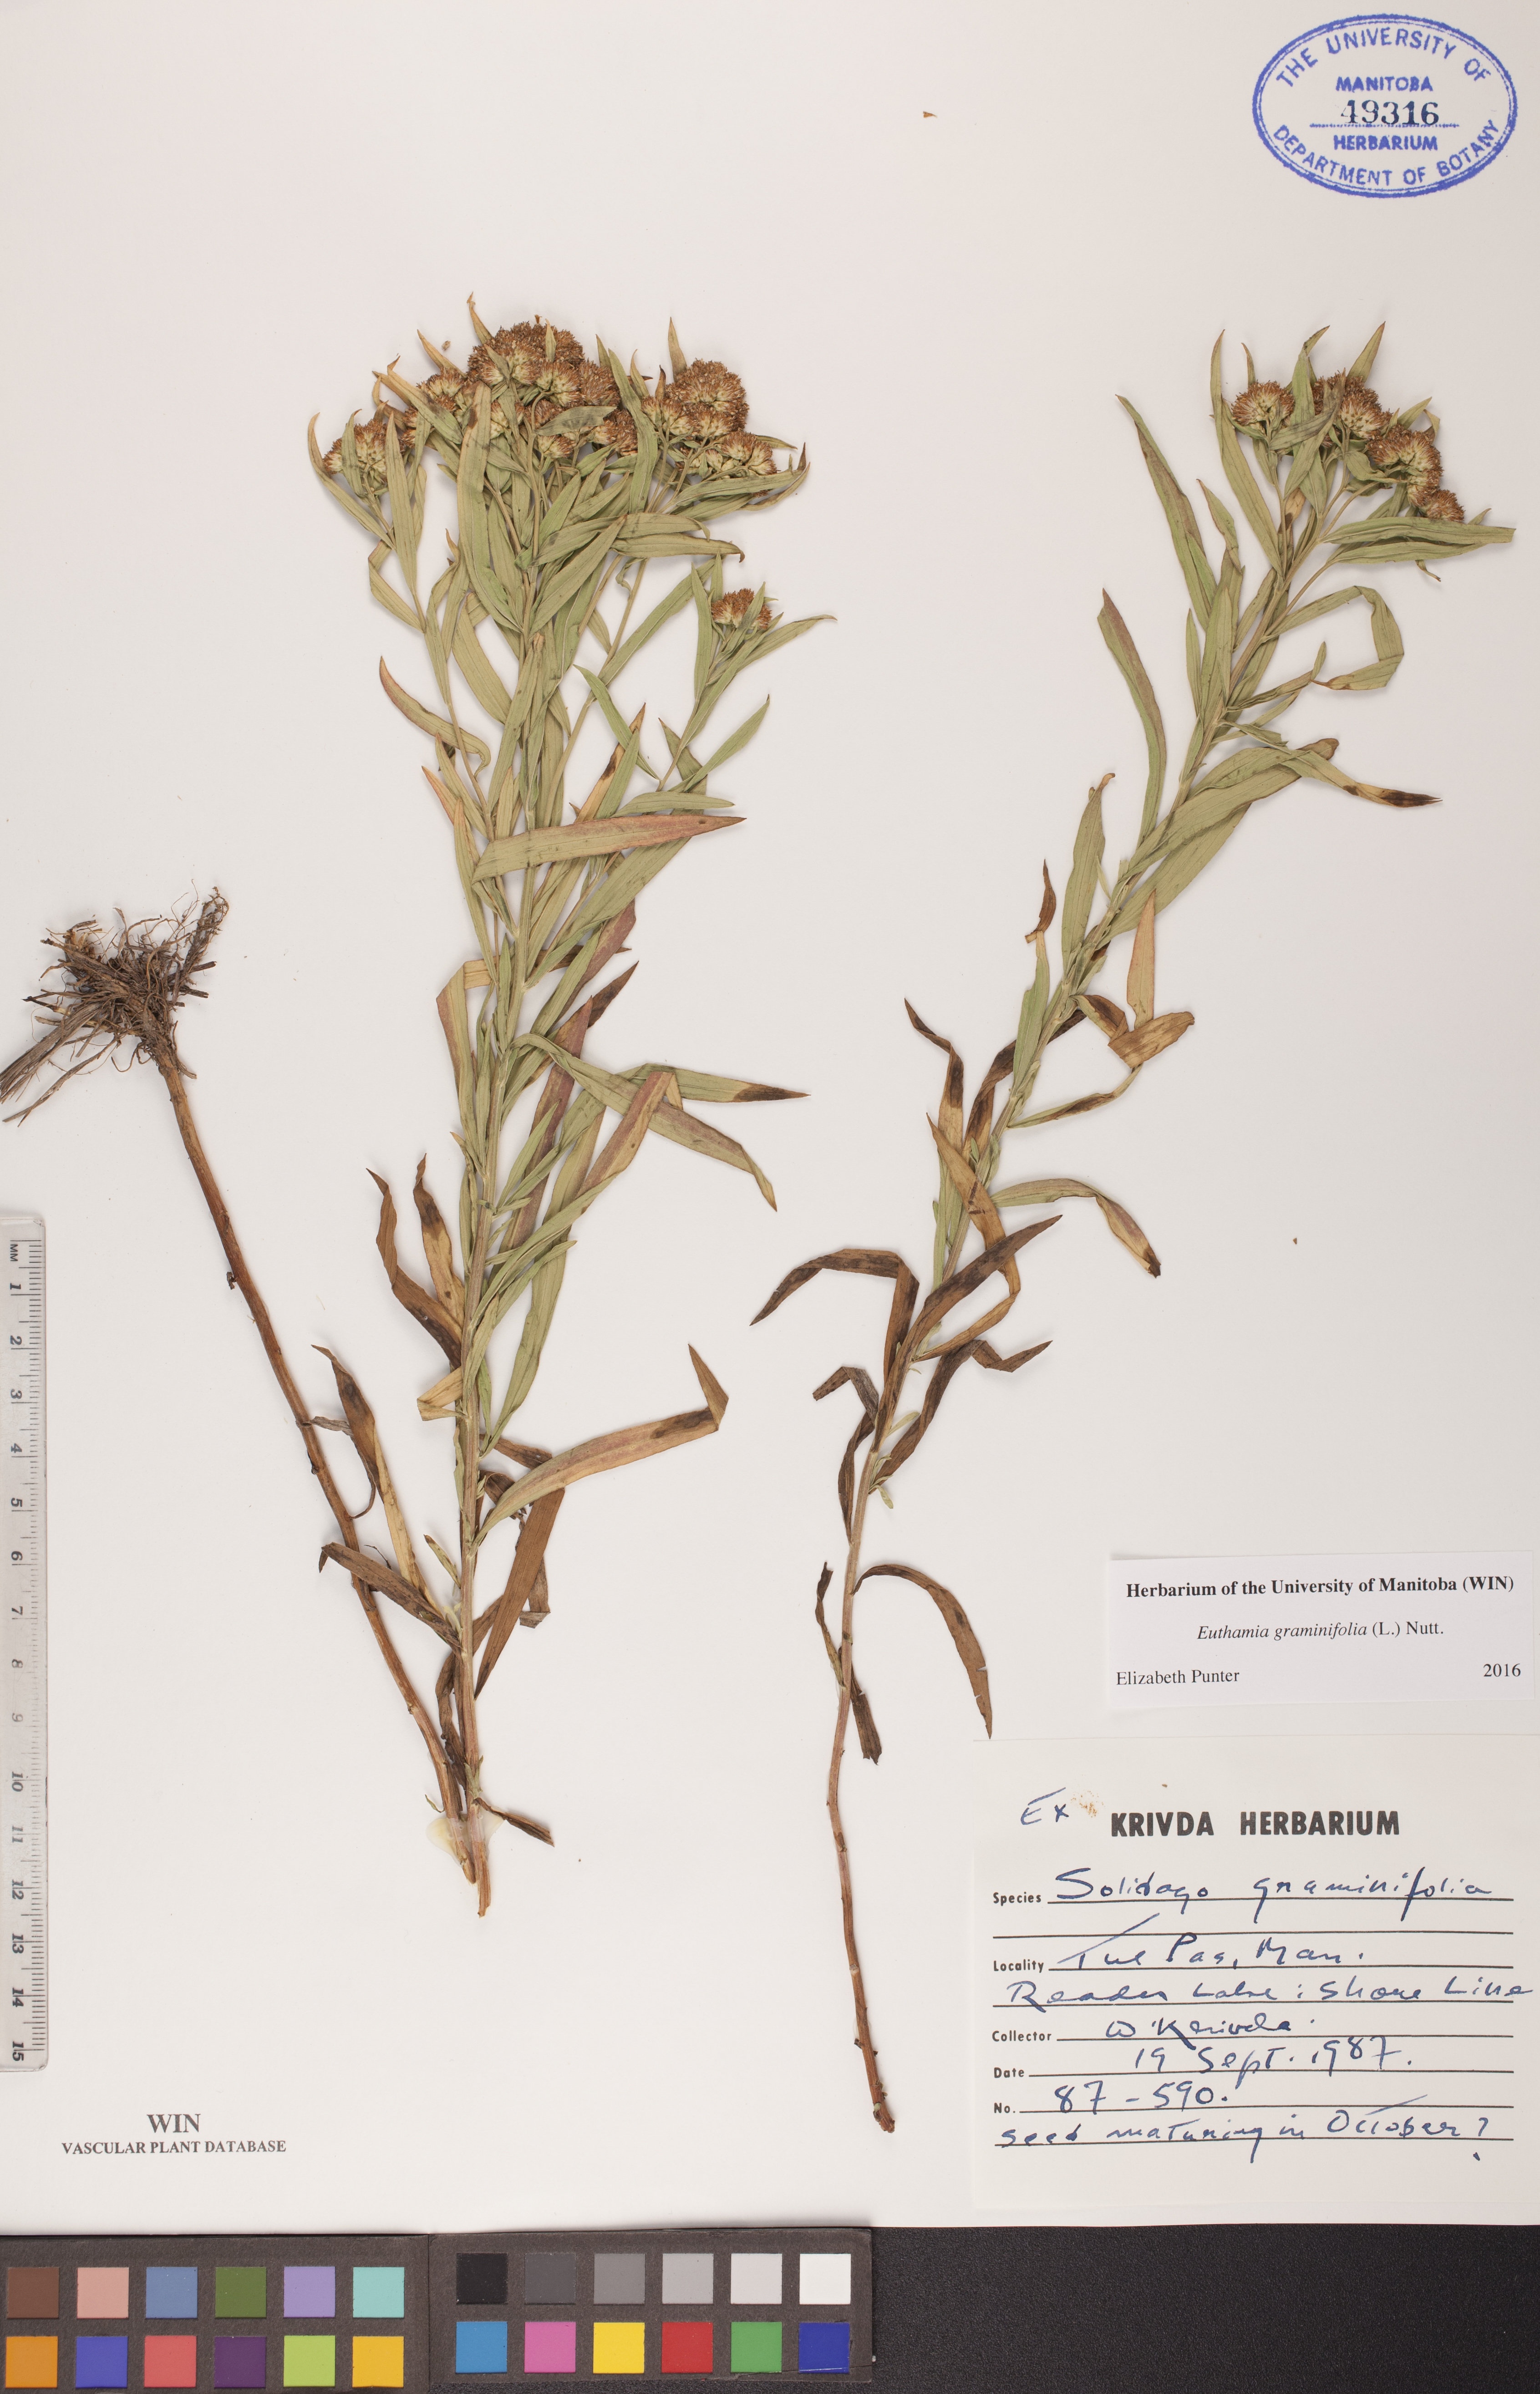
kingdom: Plantae
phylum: Tracheophyta
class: Magnoliopsida
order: Asterales
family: Asteraceae
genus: Euthamia
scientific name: Euthamia graminifolia
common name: Common goldentop
